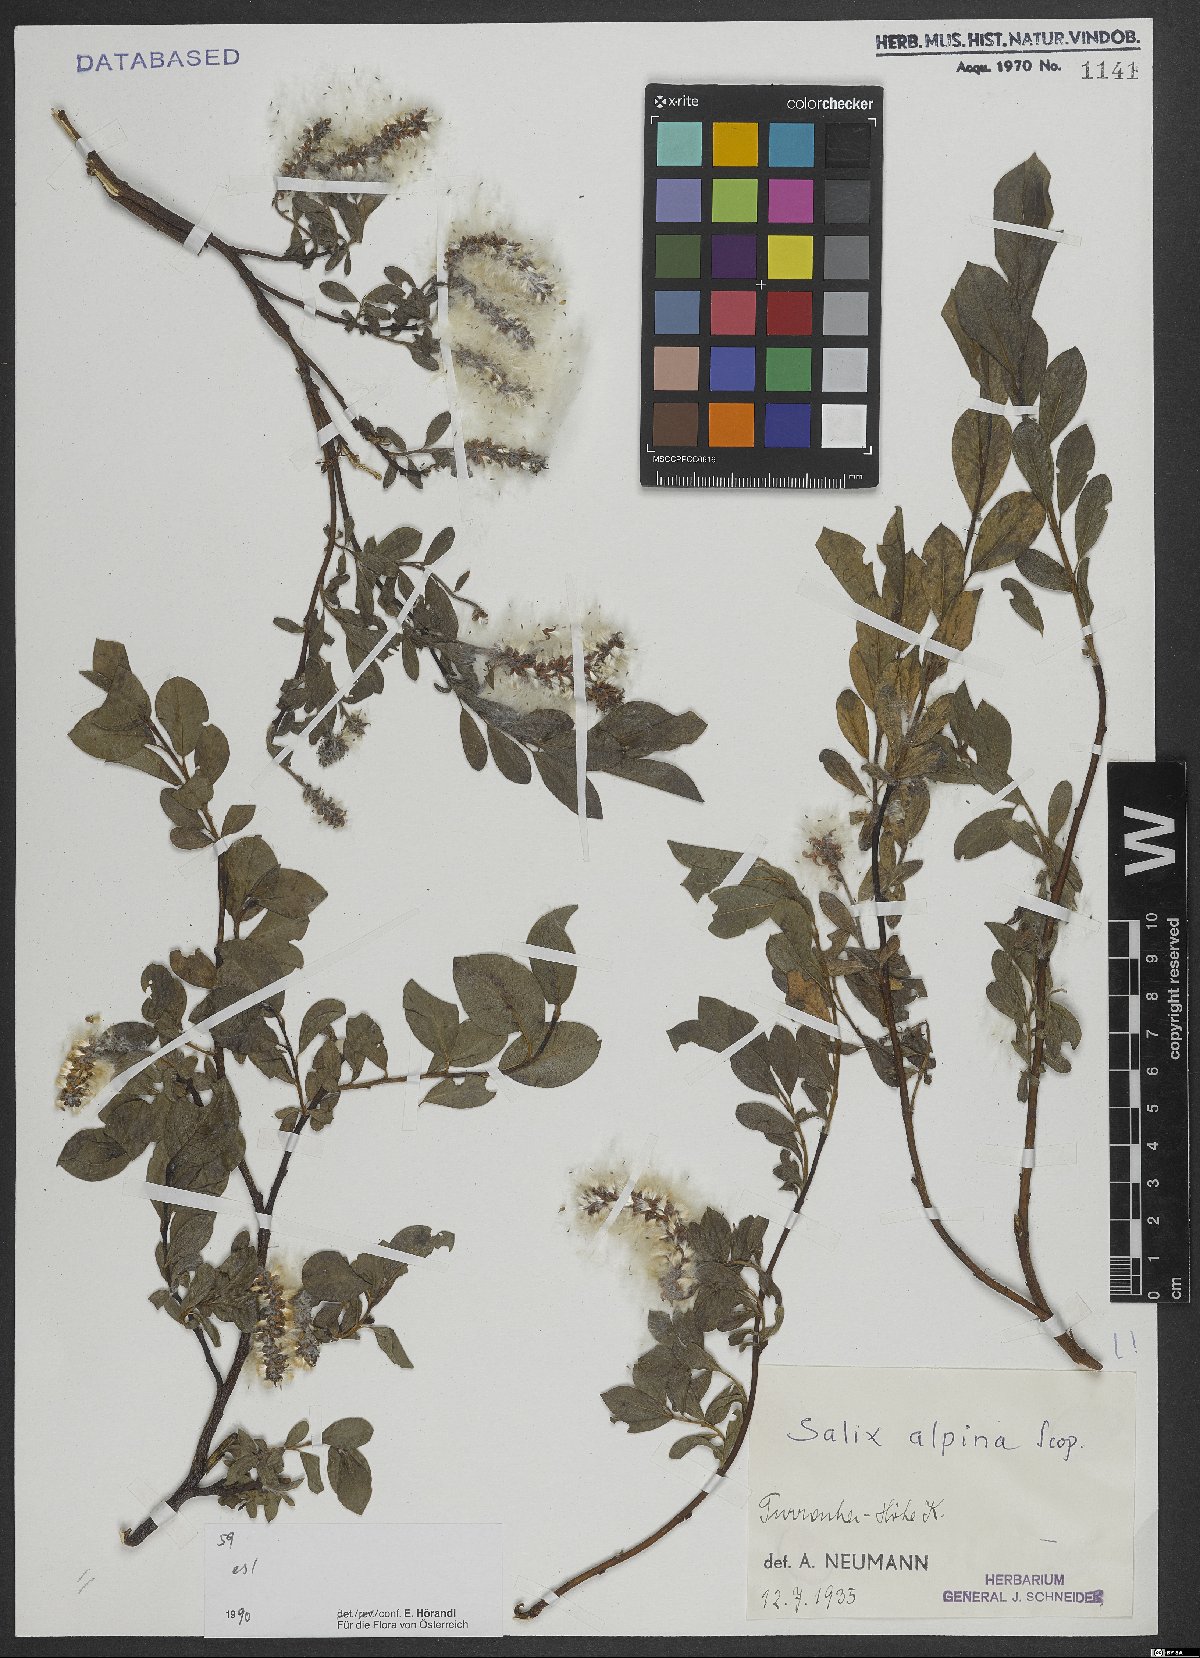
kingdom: Plantae
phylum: Tracheophyta
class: Magnoliopsida
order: Malpighiales
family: Salicaceae
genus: Salix
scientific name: Salix alpina
